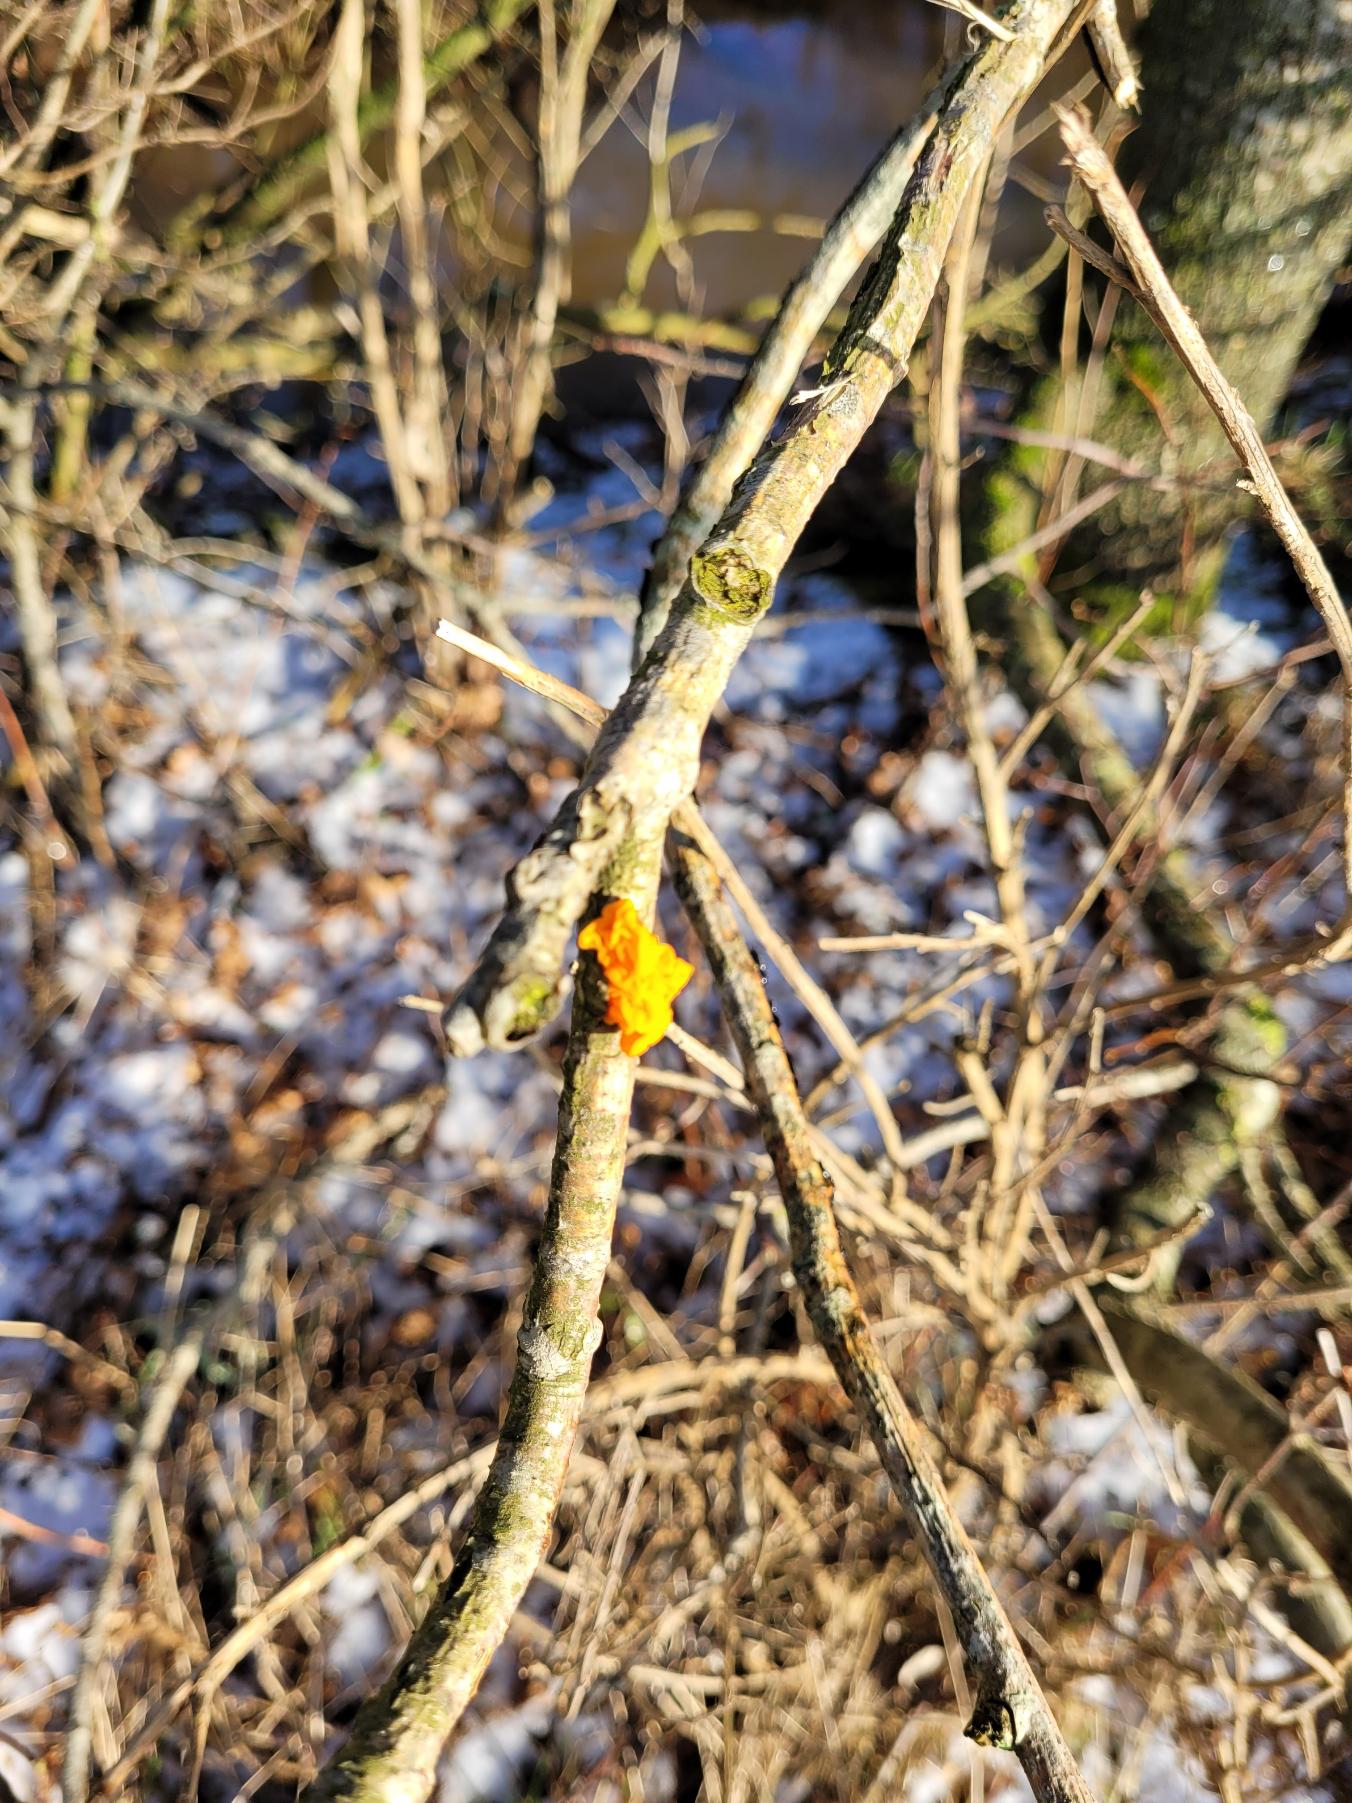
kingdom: Fungi
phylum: Basidiomycota
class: Tremellomycetes
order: Tremellales
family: Tremellaceae
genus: Tremella
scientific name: Tremella mesenterica
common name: Gul bævresvamp
